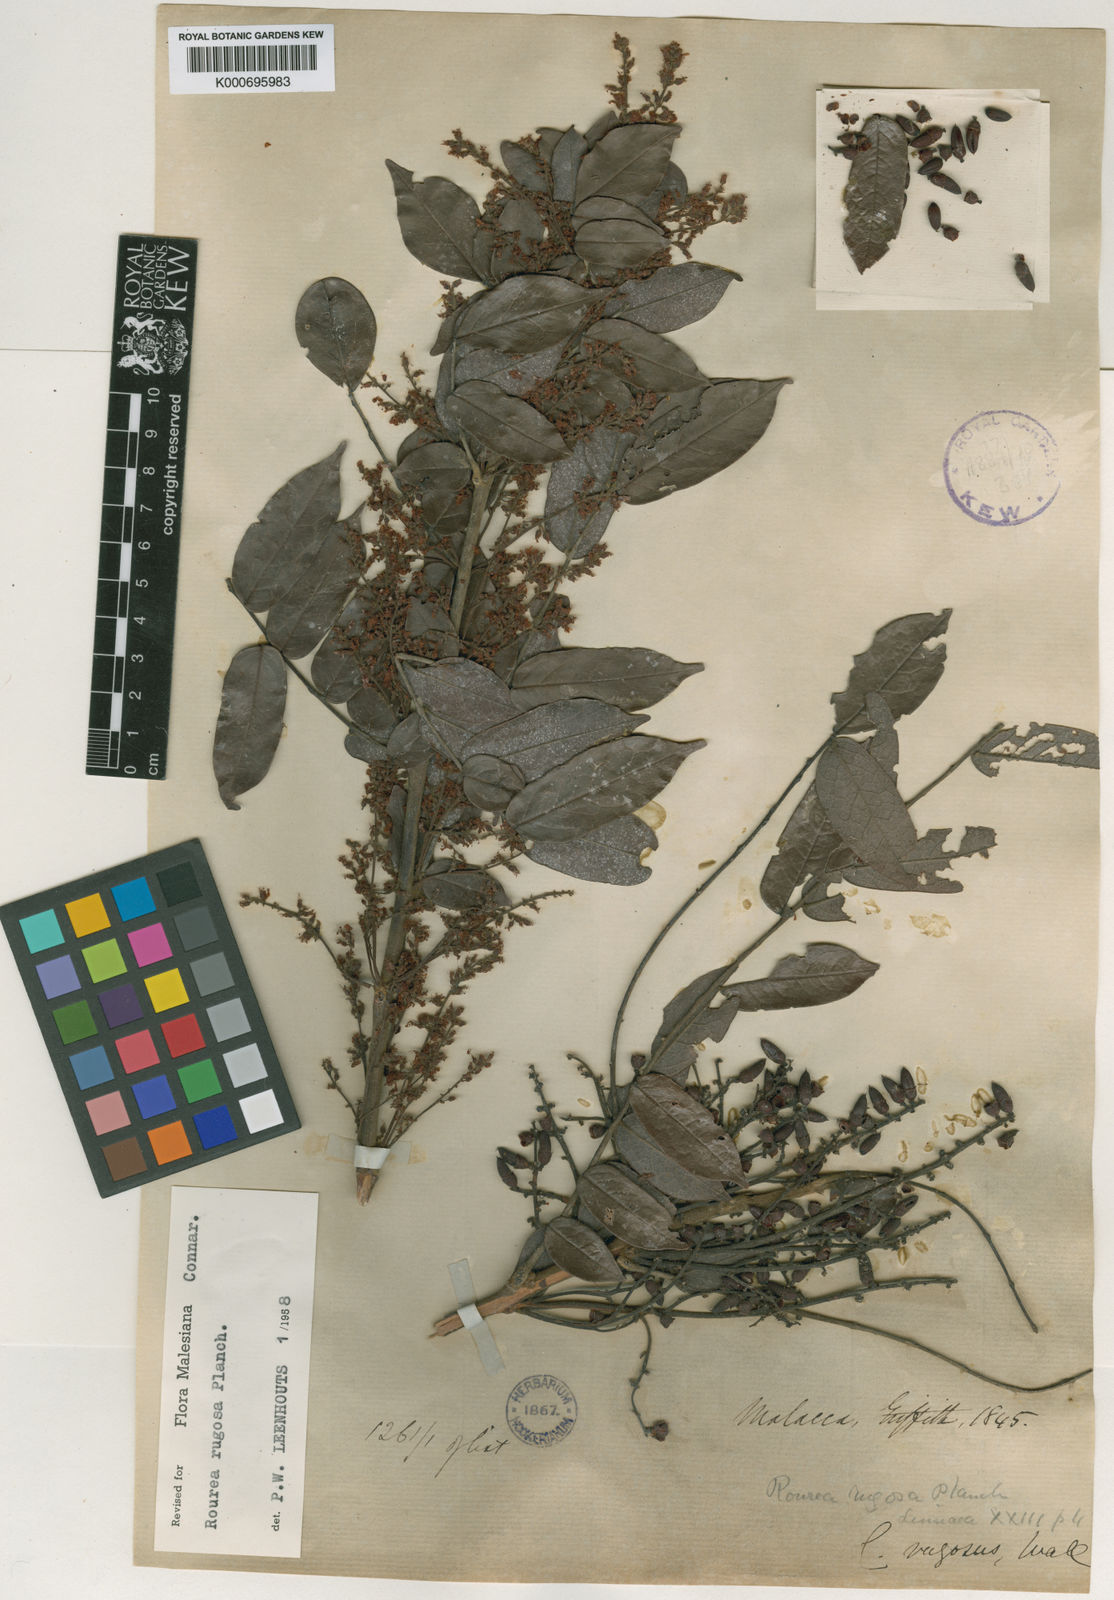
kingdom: Plantae
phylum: Tracheophyta
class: Magnoliopsida
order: Oxalidales
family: Connaraceae
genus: Rourea
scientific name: Rourea rugosa
